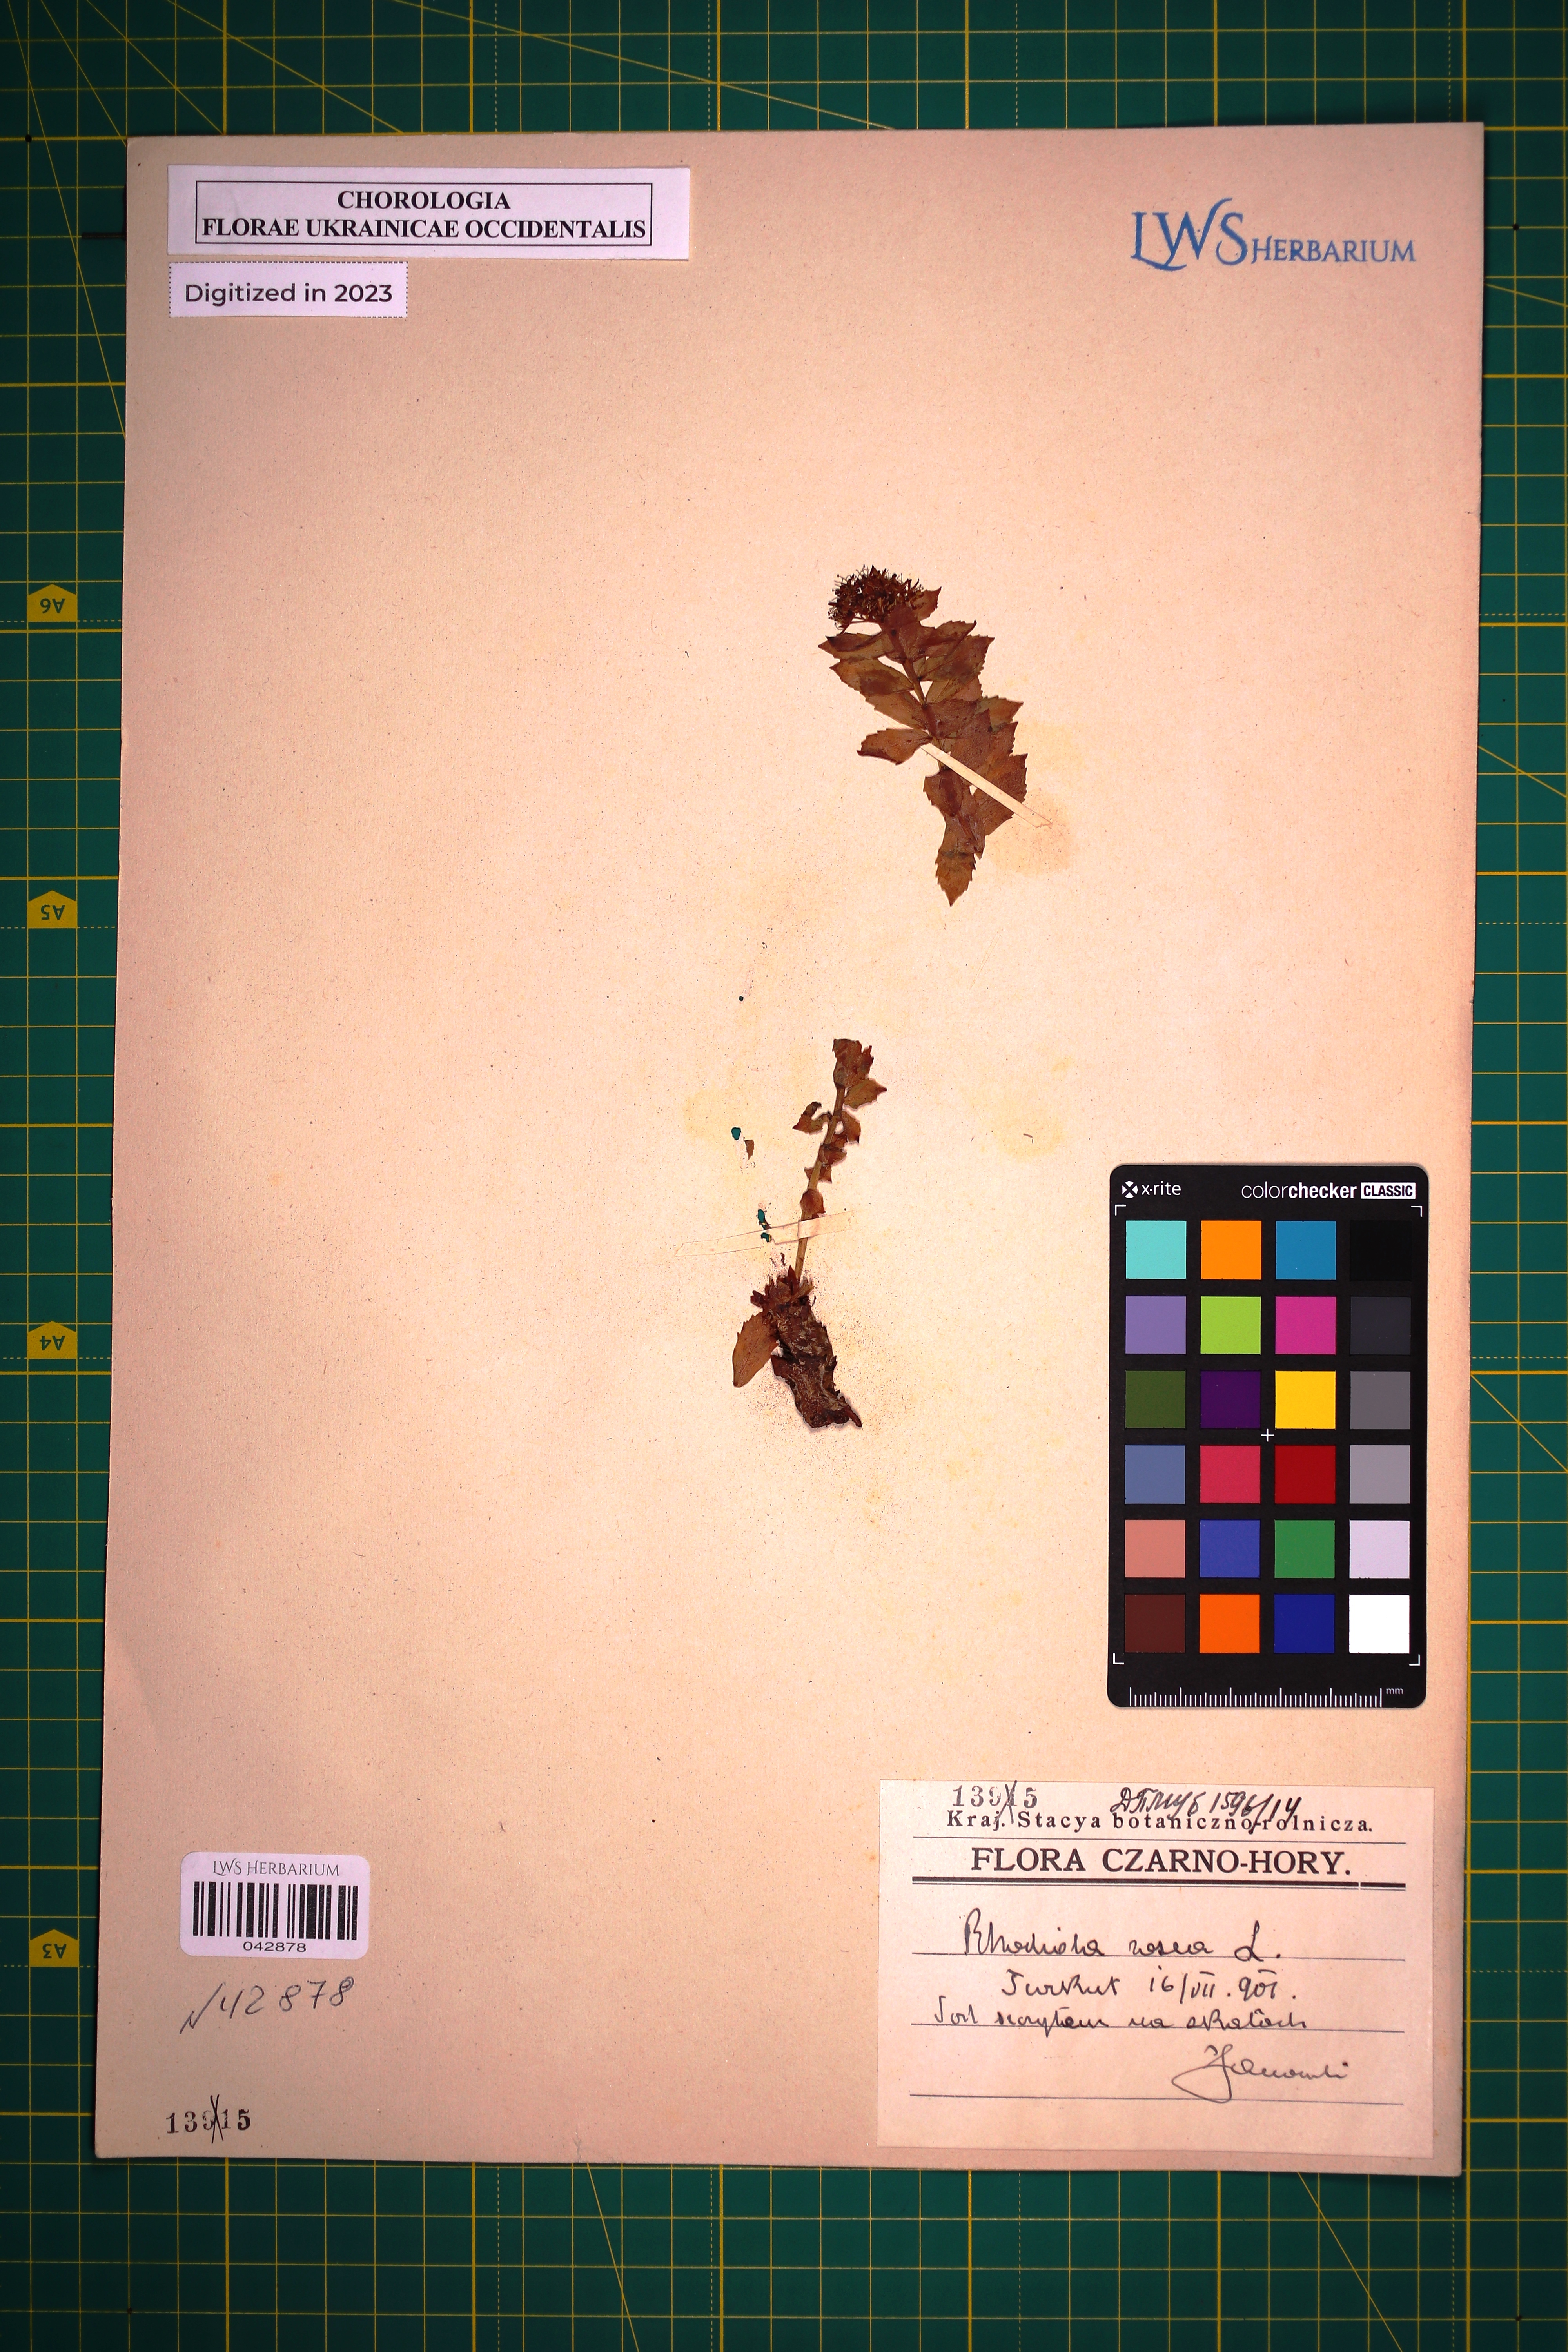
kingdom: Plantae
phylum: Tracheophyta
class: Magnoliopsida
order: Saxifragales
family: Crassulaceae
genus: Rhodiola
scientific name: Rhodiola rosea
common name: Roseroot
